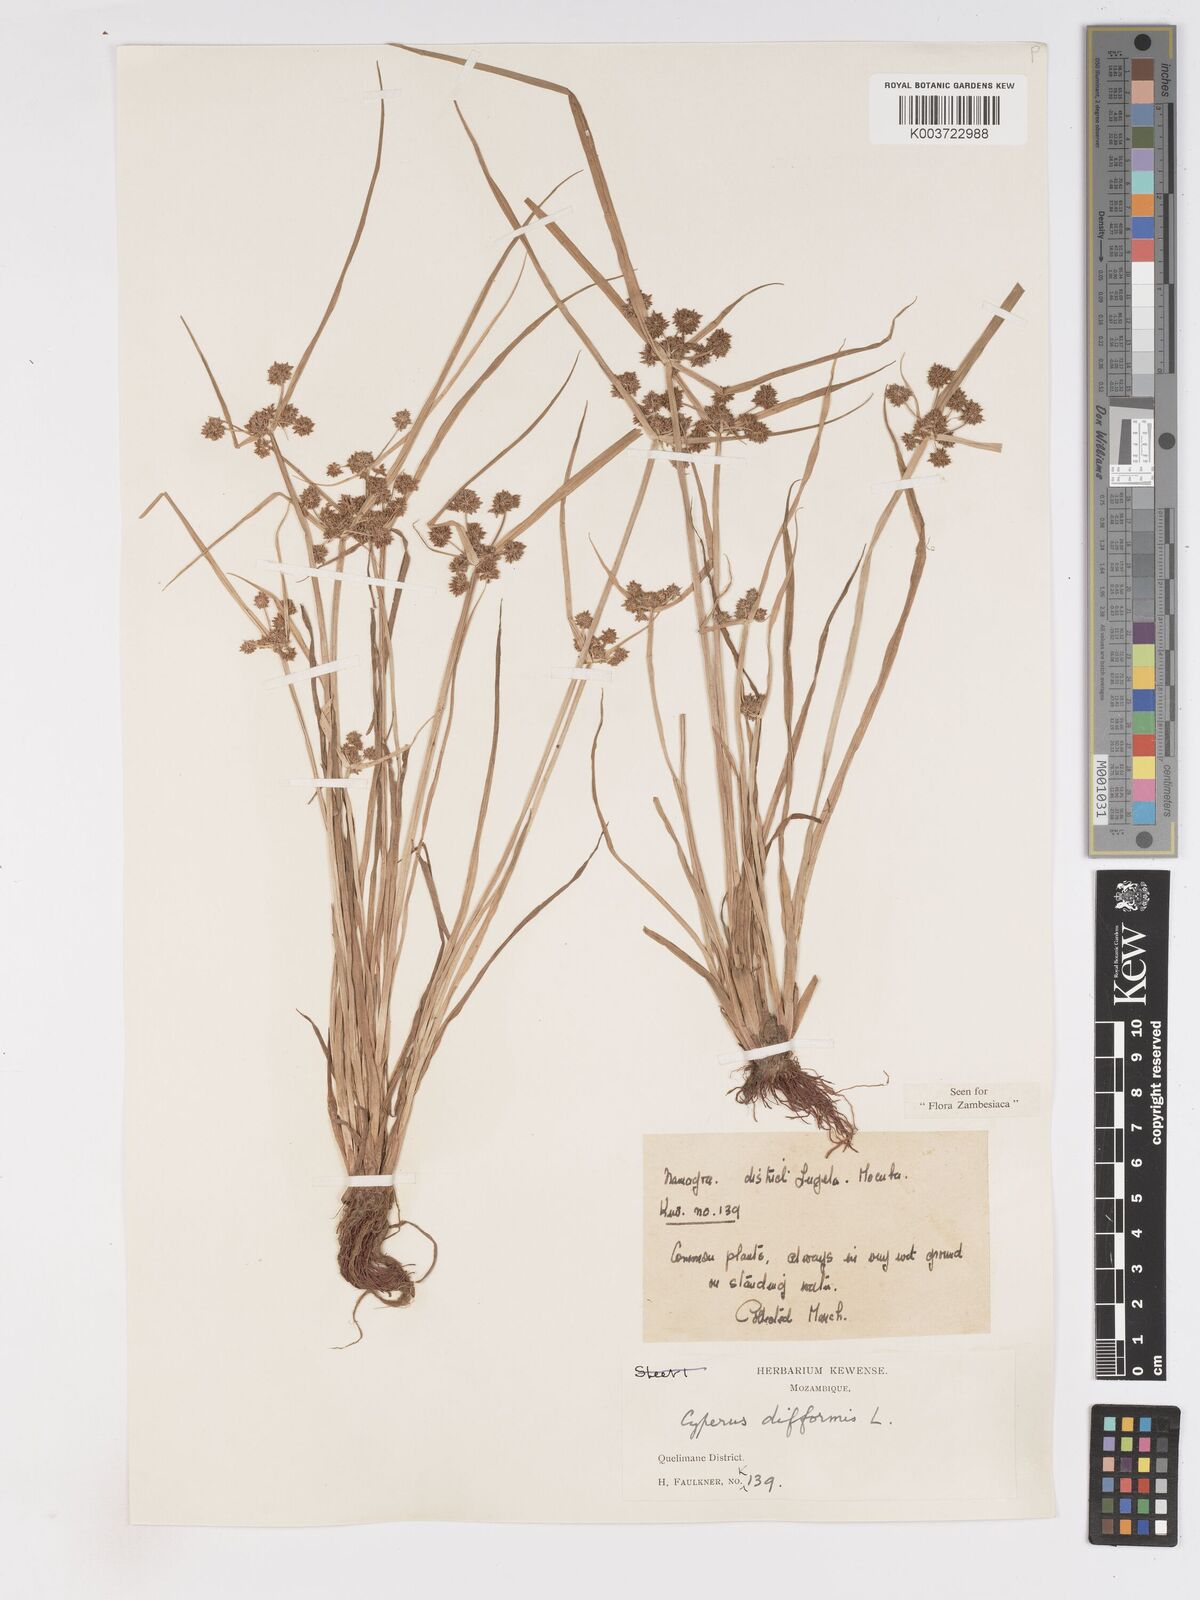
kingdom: Plantae
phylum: Tracheophyta
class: Liliopsida
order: Poales
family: Cyperaceae
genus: Cyperus
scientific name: Cyperus difformis
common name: Variable flatsedge
